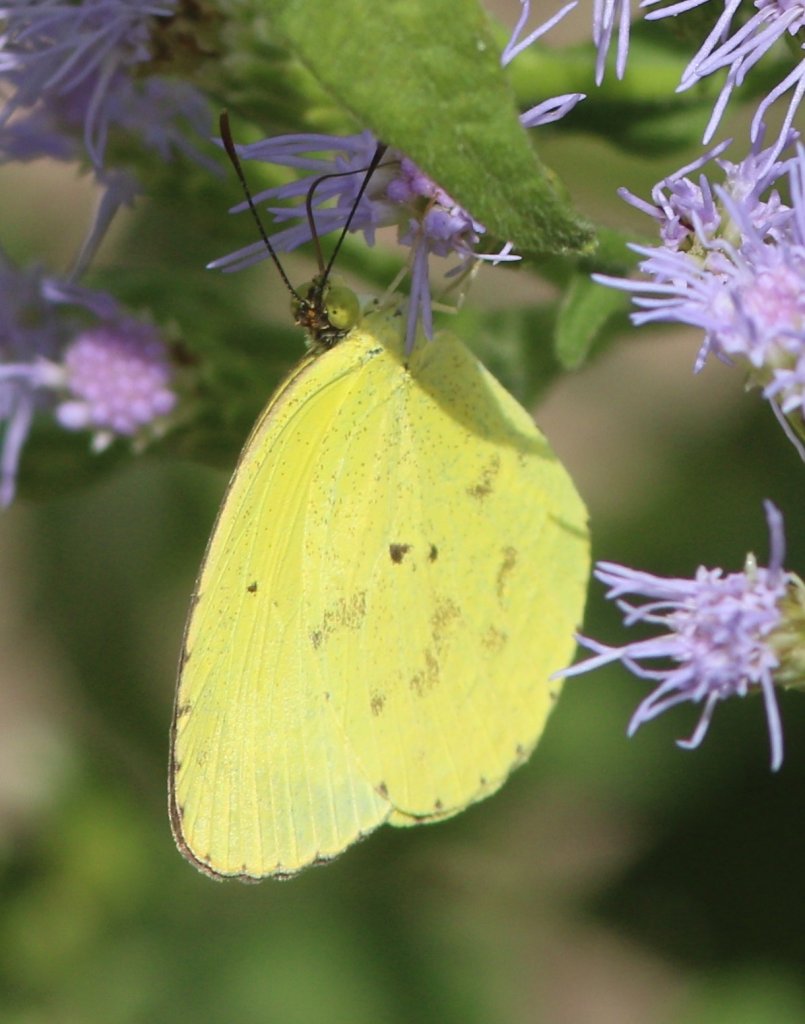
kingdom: Animalia
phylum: Arthropoda
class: Insecta
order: Lepidoptera
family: Pieridae
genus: Pyrisitia
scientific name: Pyrisitia nise
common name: Mimosa Yellow
